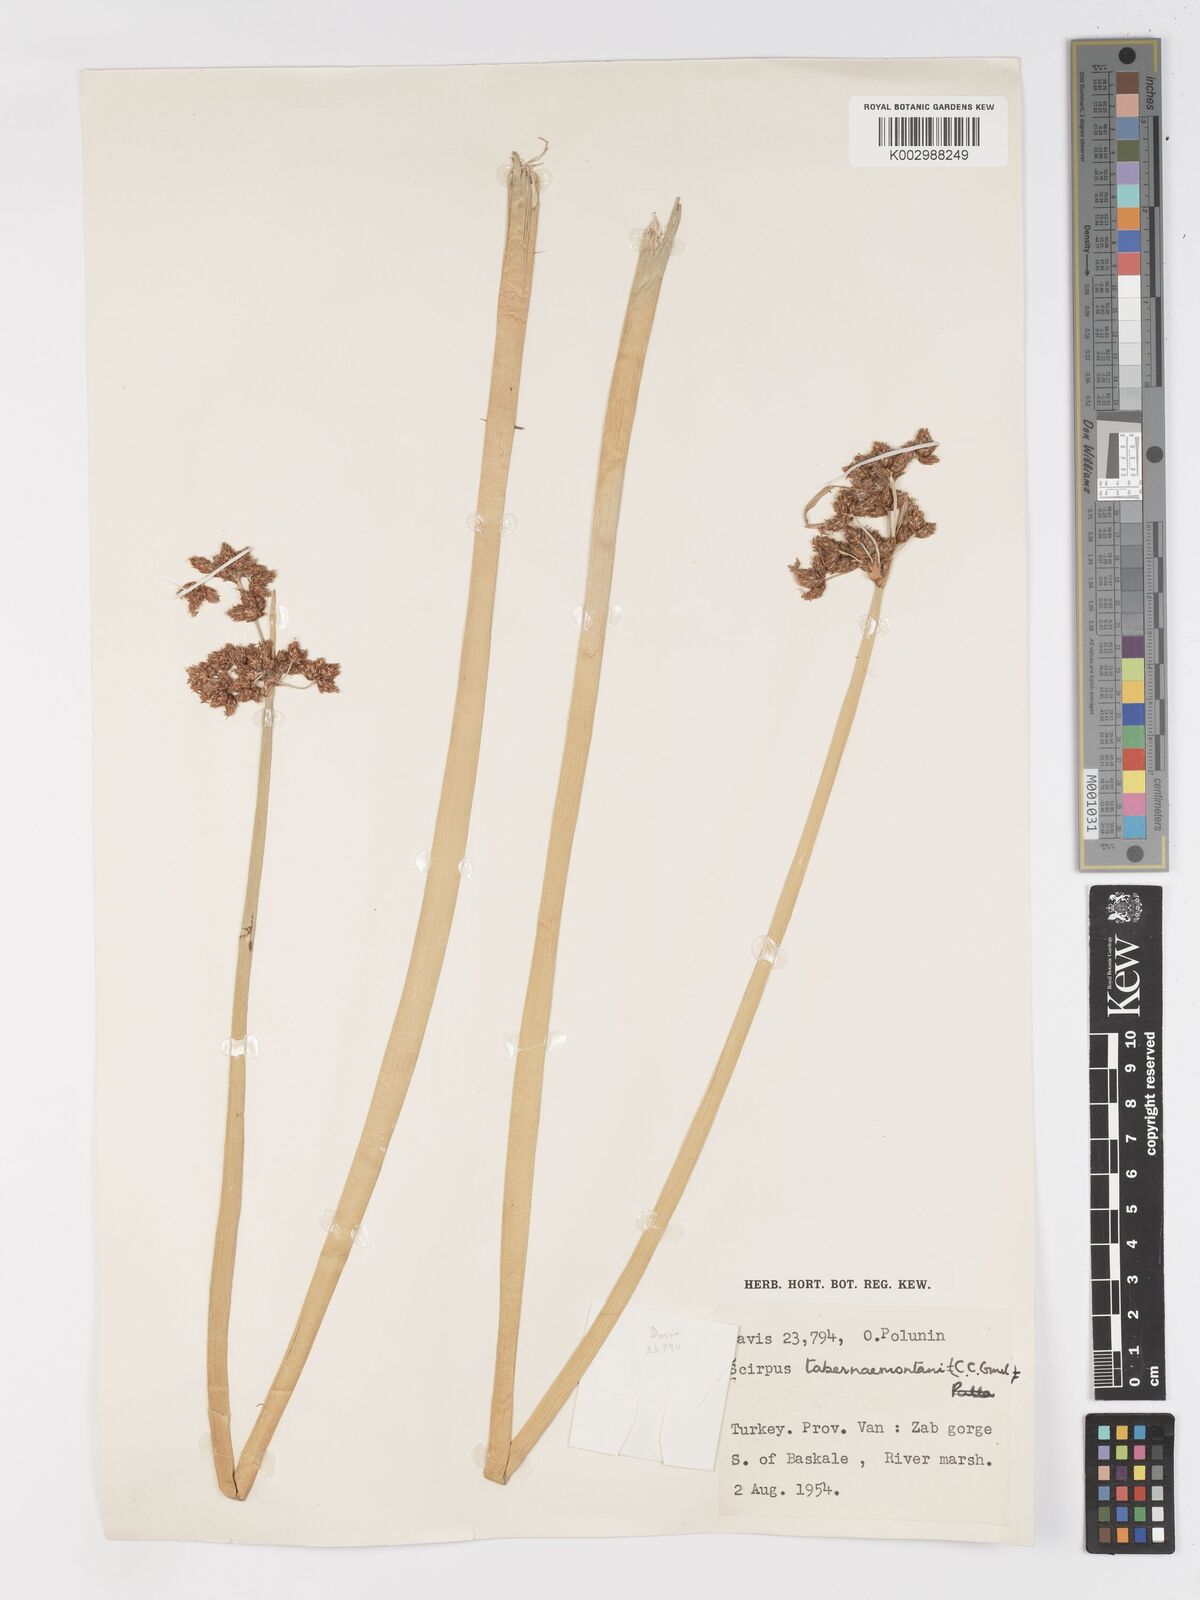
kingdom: Plantae
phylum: Tracheophyta
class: Liliopsida
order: Poales
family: Cyperaceae
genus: Schoenoplectus
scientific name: Schoenoplectus tabernaemontani
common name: Grey club-rush
